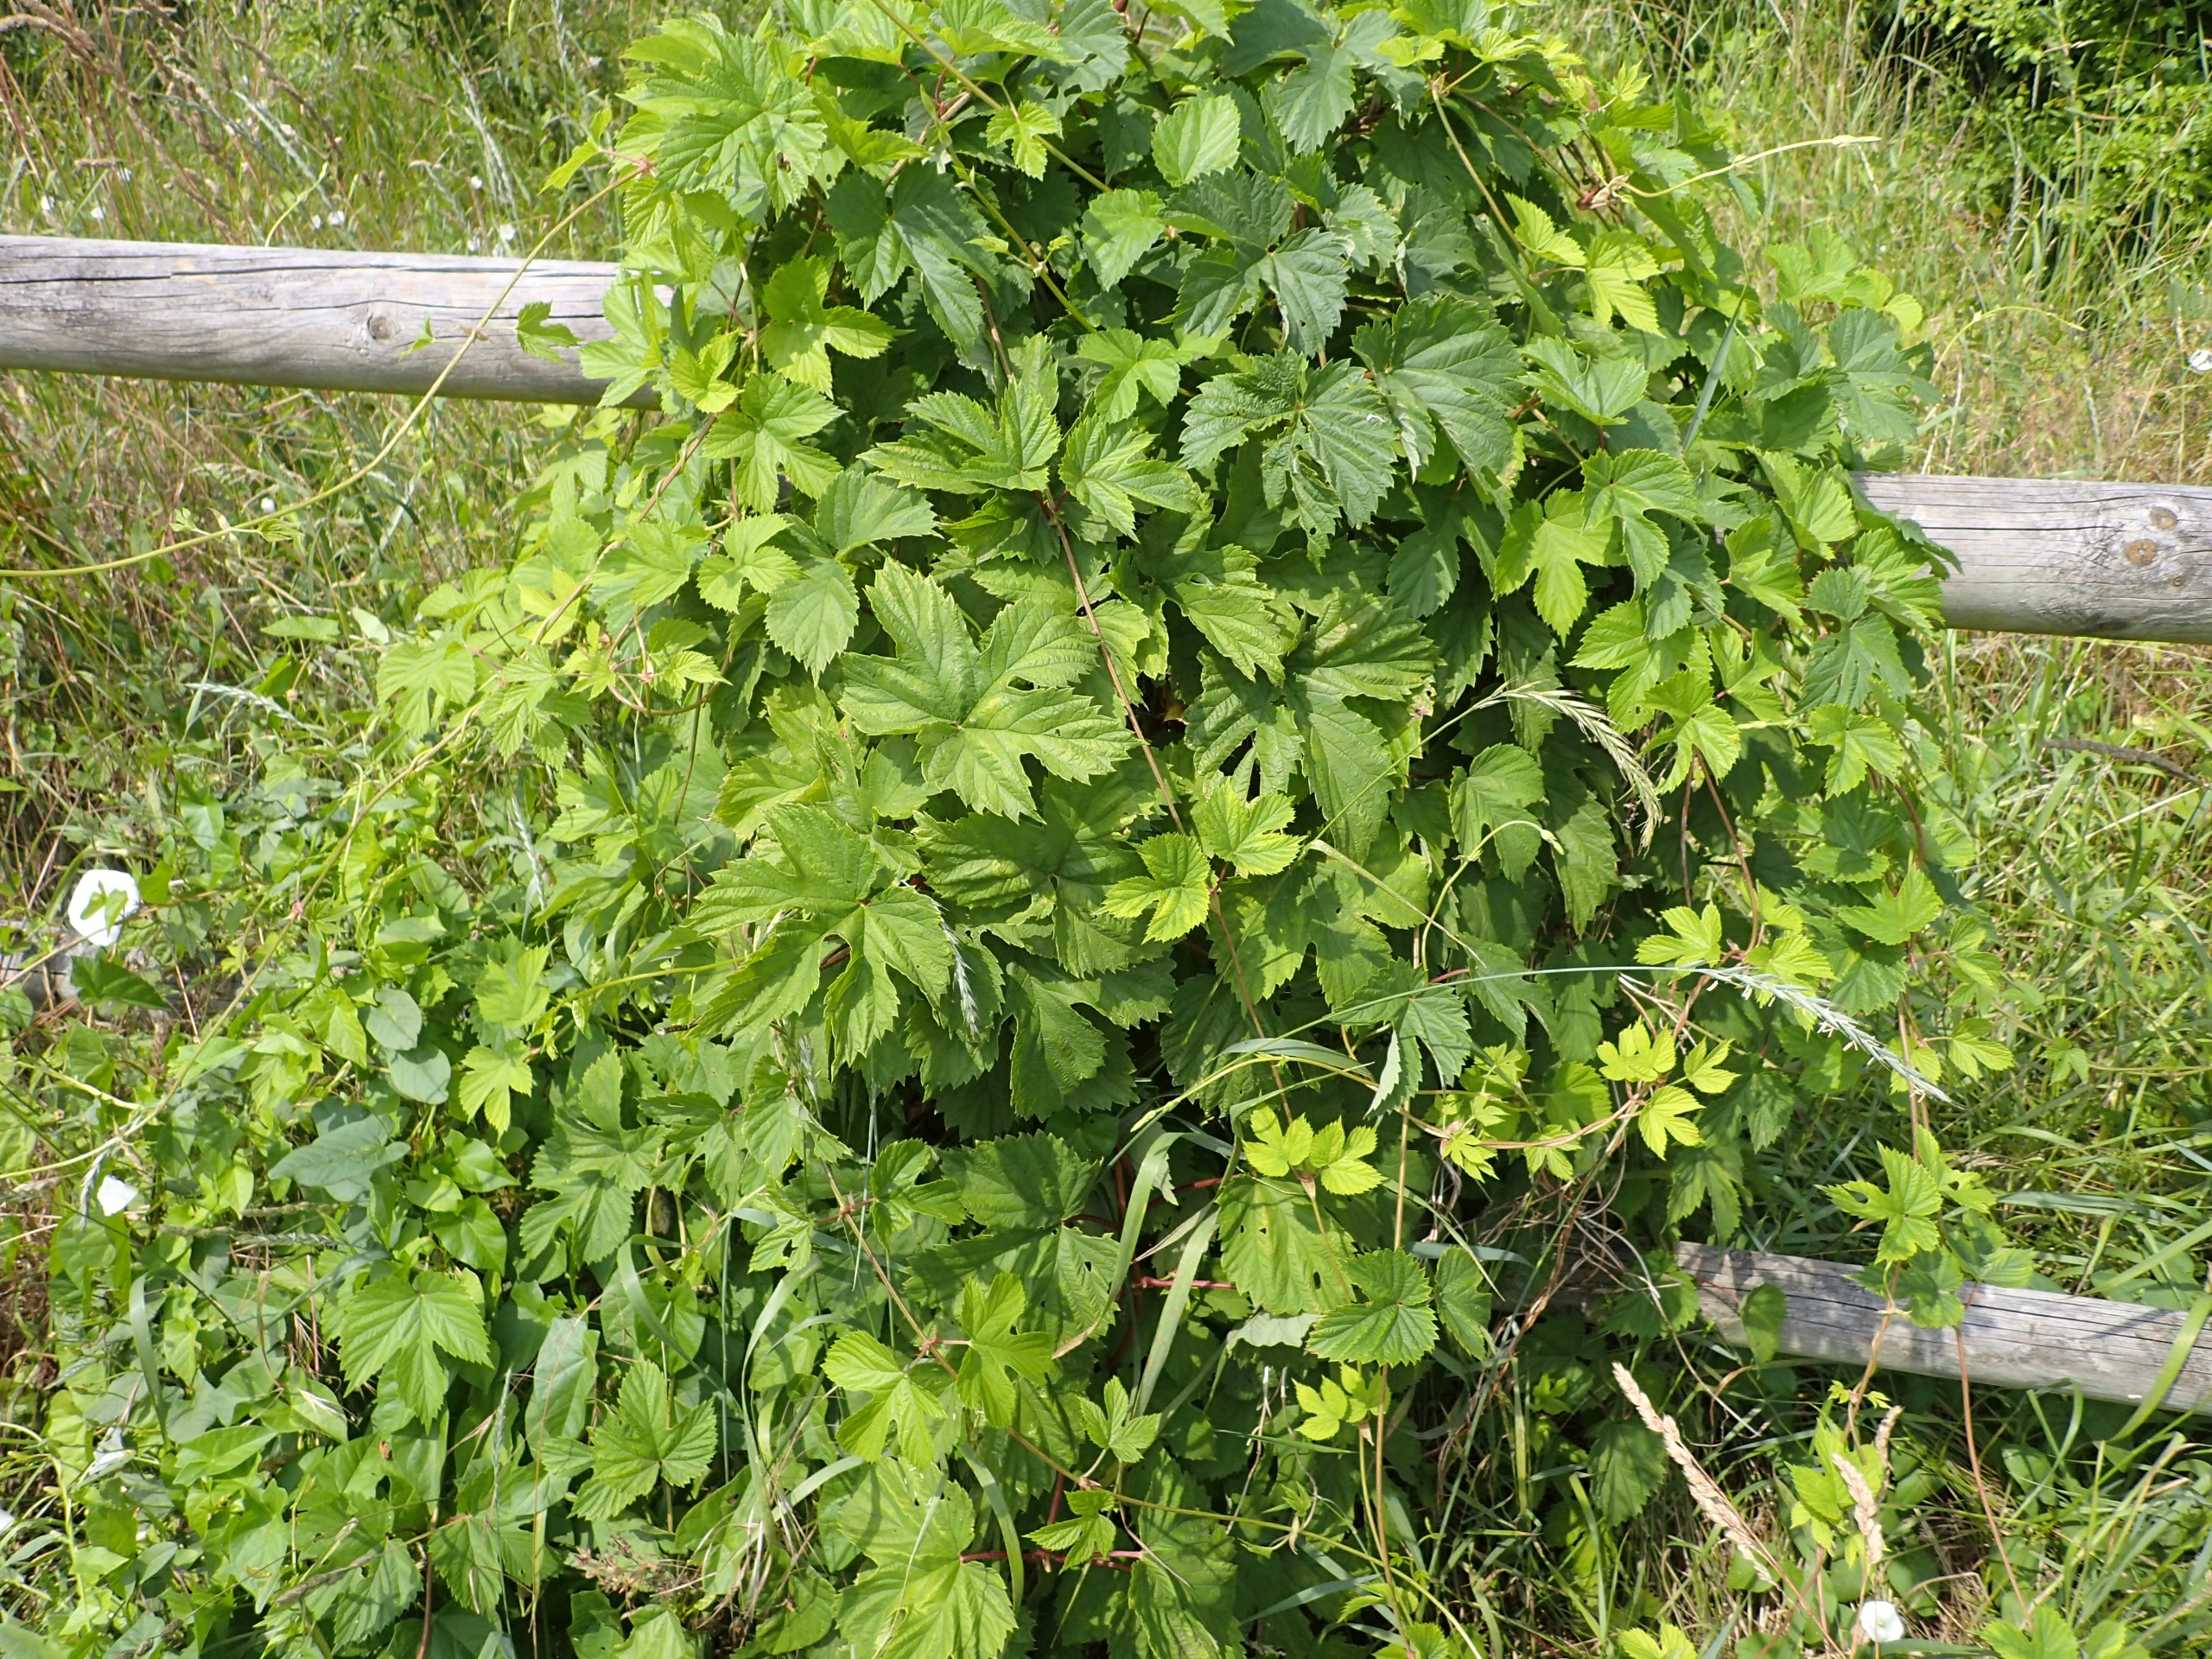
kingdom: Plantae
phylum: Tracheophyta
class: Magnoliopsida
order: Rosales
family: Cannabaceae
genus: Humulus
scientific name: Humulus lupulus
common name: Humle
